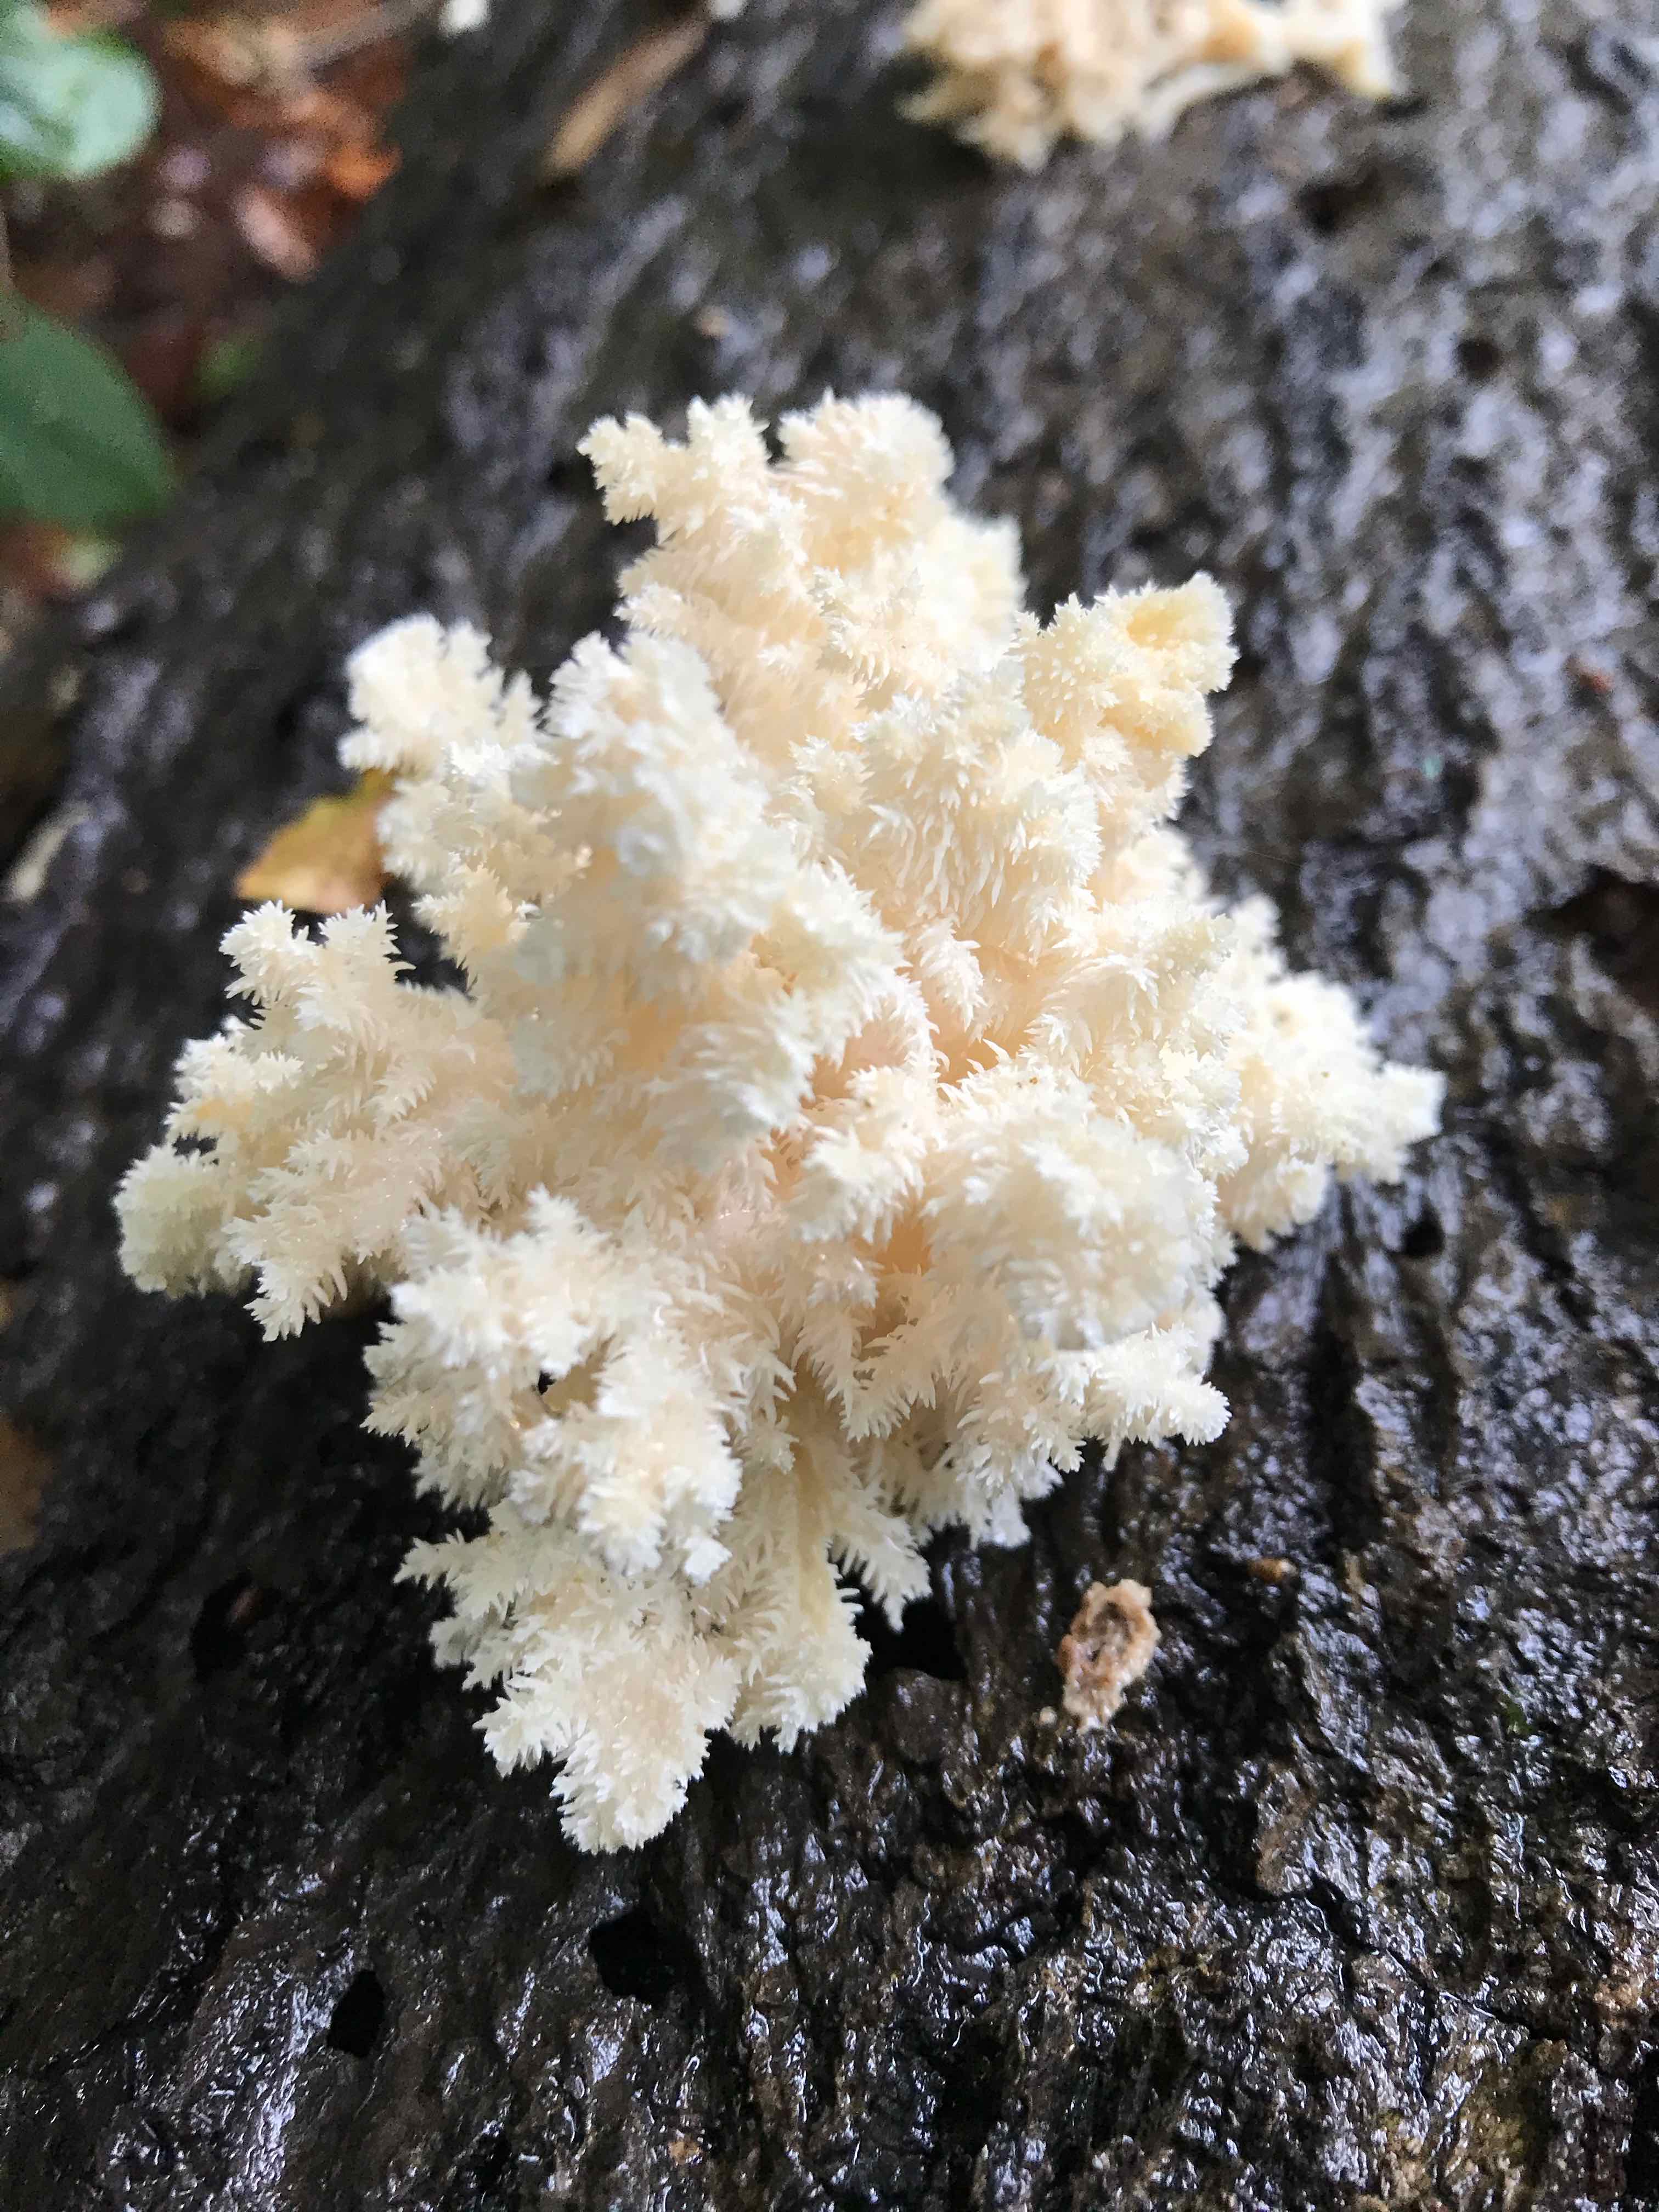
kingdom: Fungi
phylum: Basidiomycota
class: Agaricomycetes
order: Russulales
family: Hericiaceae
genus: Hericium
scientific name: Hericium coralloides
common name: koralpigsvamp
